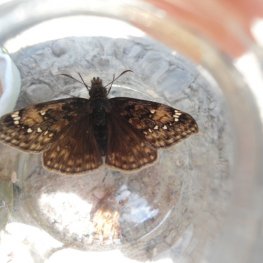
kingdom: Animalia
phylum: Arthropoda
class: Insecta
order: Lepidoptera
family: Hesperiidae
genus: Gesta
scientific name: Gesta
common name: Juvenal's Duskywing
